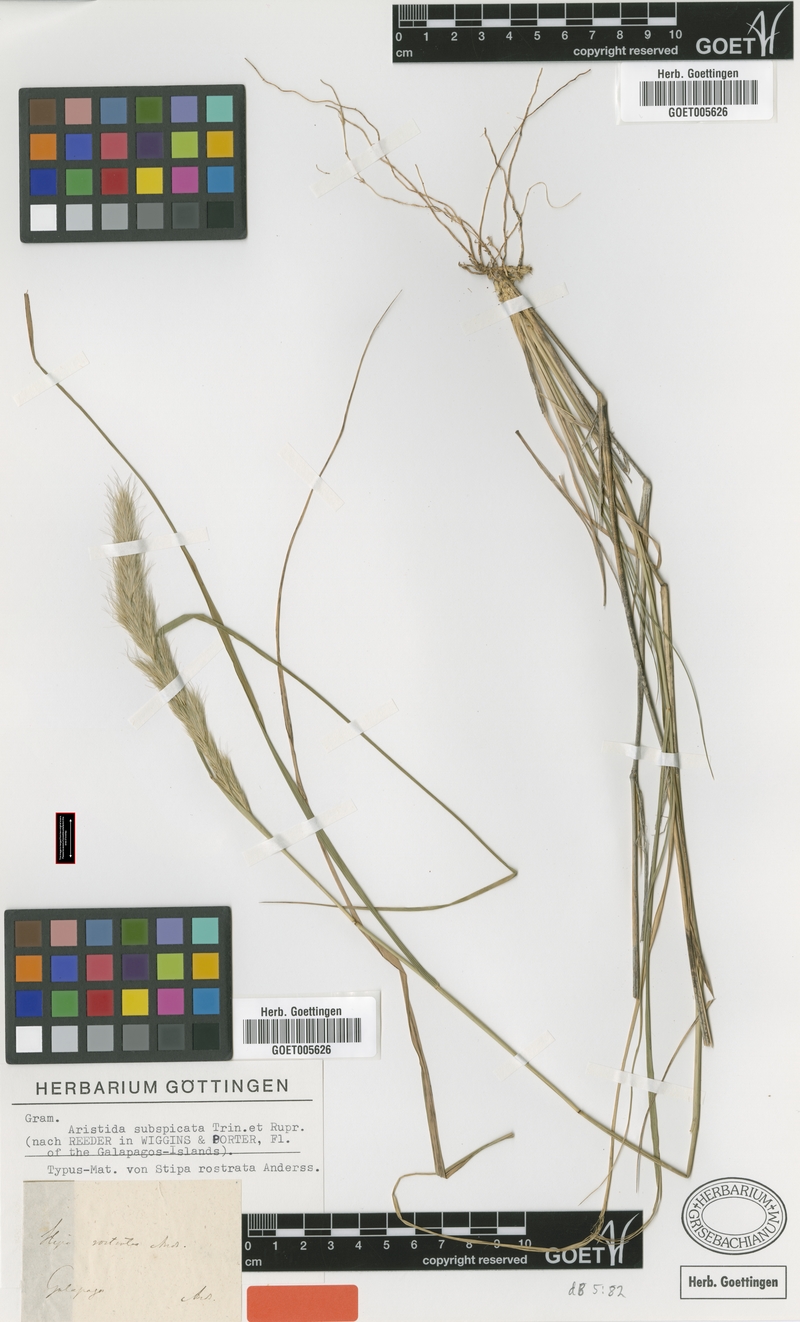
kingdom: Plantae
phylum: Tracheophyta
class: Liliopsida
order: Poales
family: Poaceae
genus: Aristida
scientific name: Aristida subspicata
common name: Galapagos three-awn grass
